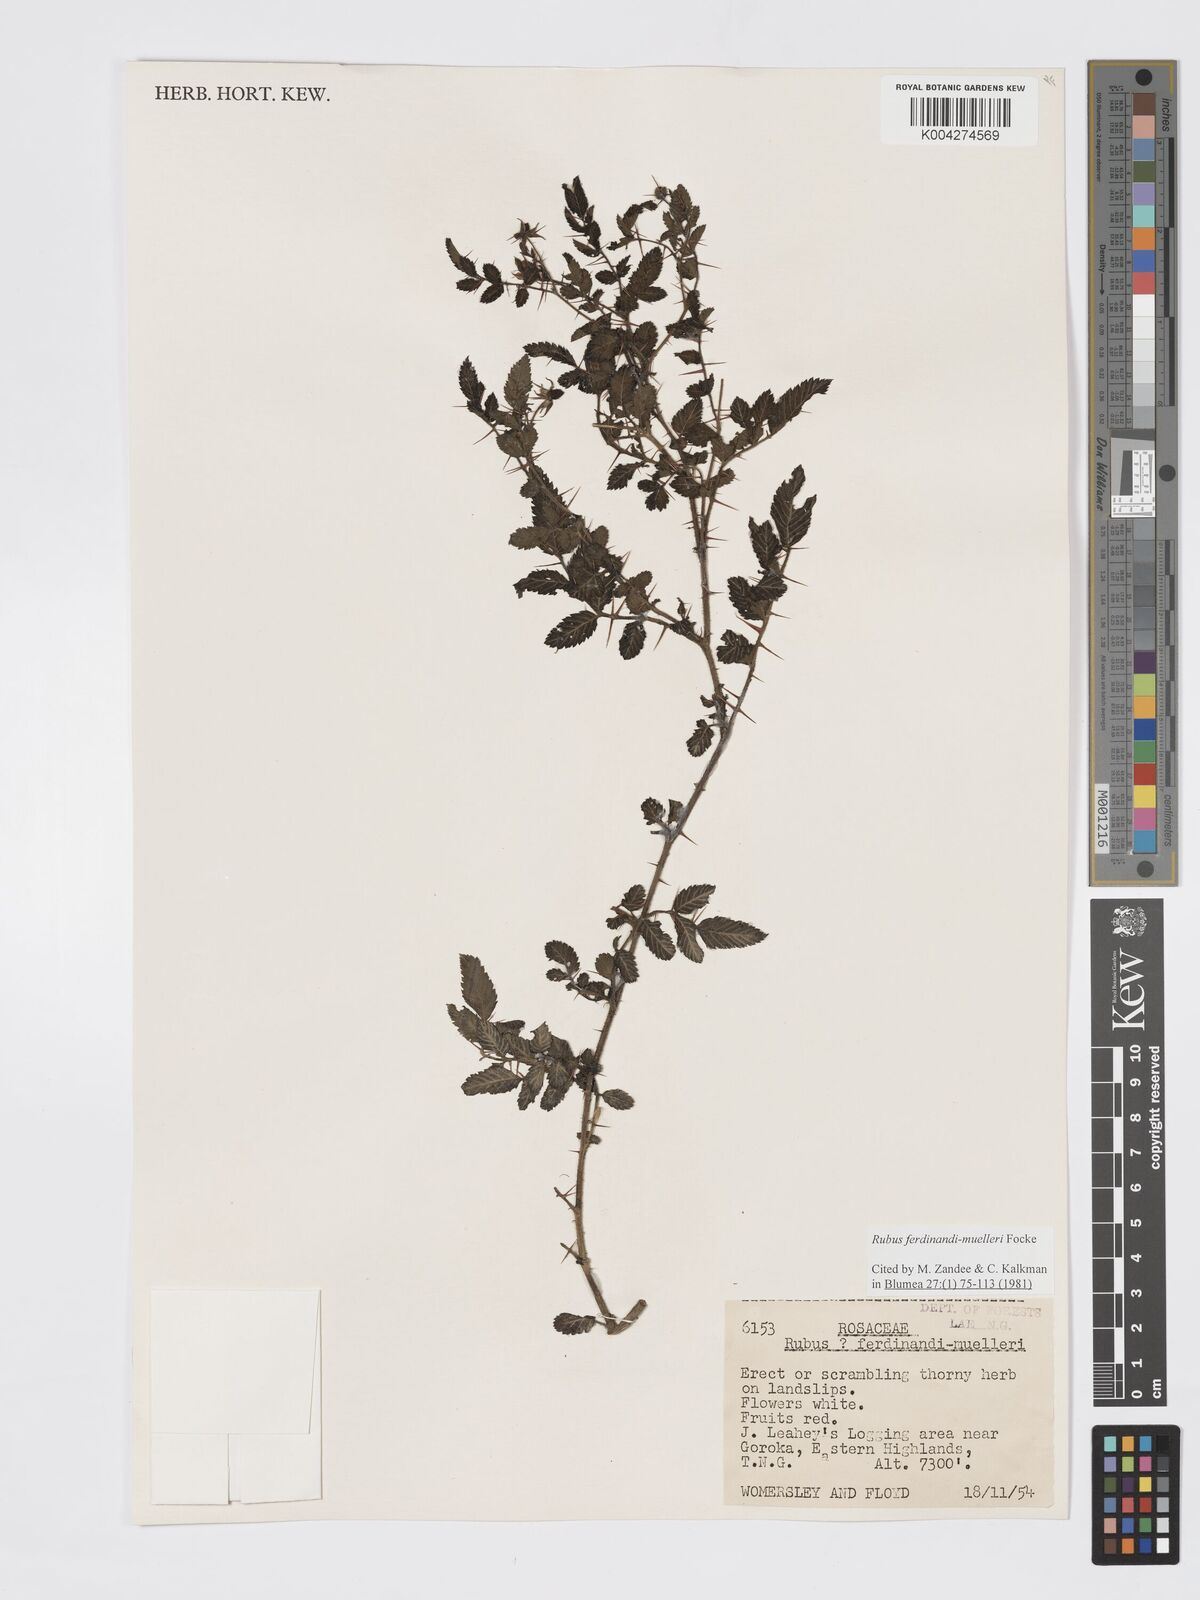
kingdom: Plantae
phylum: Tracheophyta
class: Magnoliopsida
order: Rosales
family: Rosaceae
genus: Rubus
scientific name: Rubus ferdinandimuelleri
